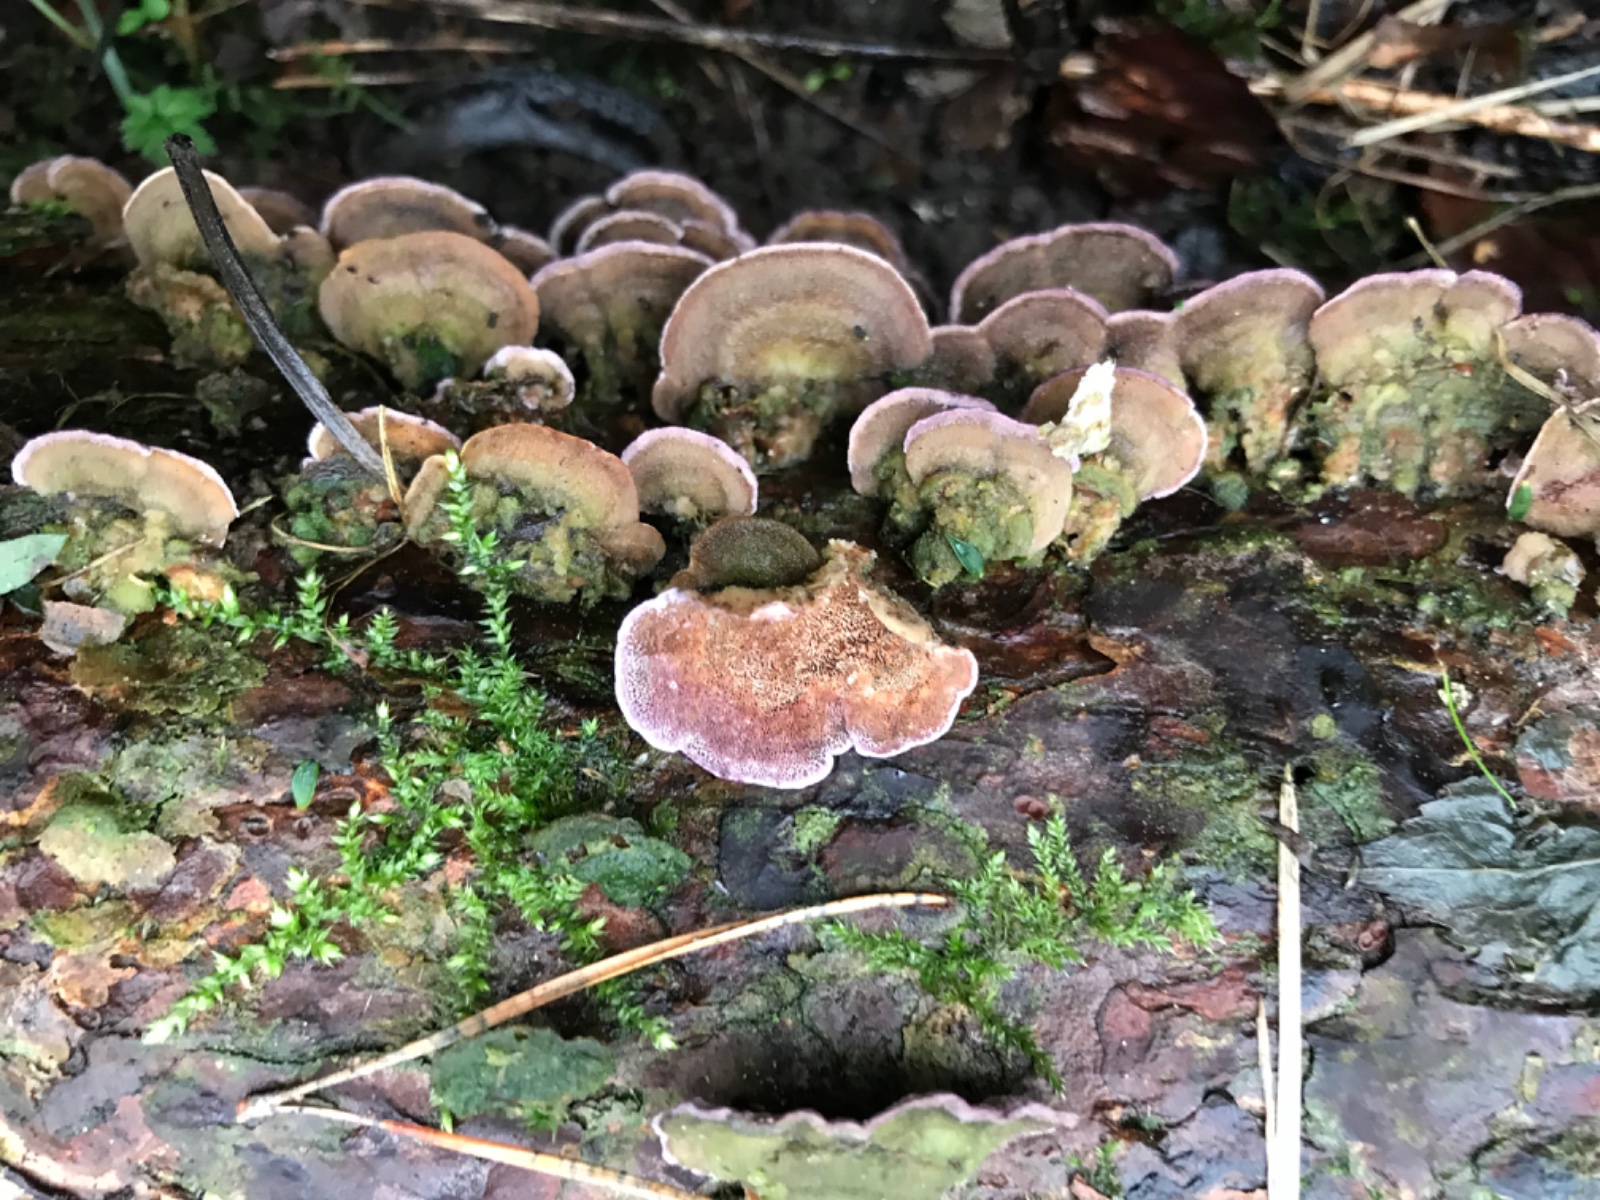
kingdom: Fungi
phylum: Basidiomycota
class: Agaricomycetes
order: Hymenochaetales
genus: Trichaptum
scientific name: Trichaptum fuscoviolaceum
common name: tandet violporesvamp
